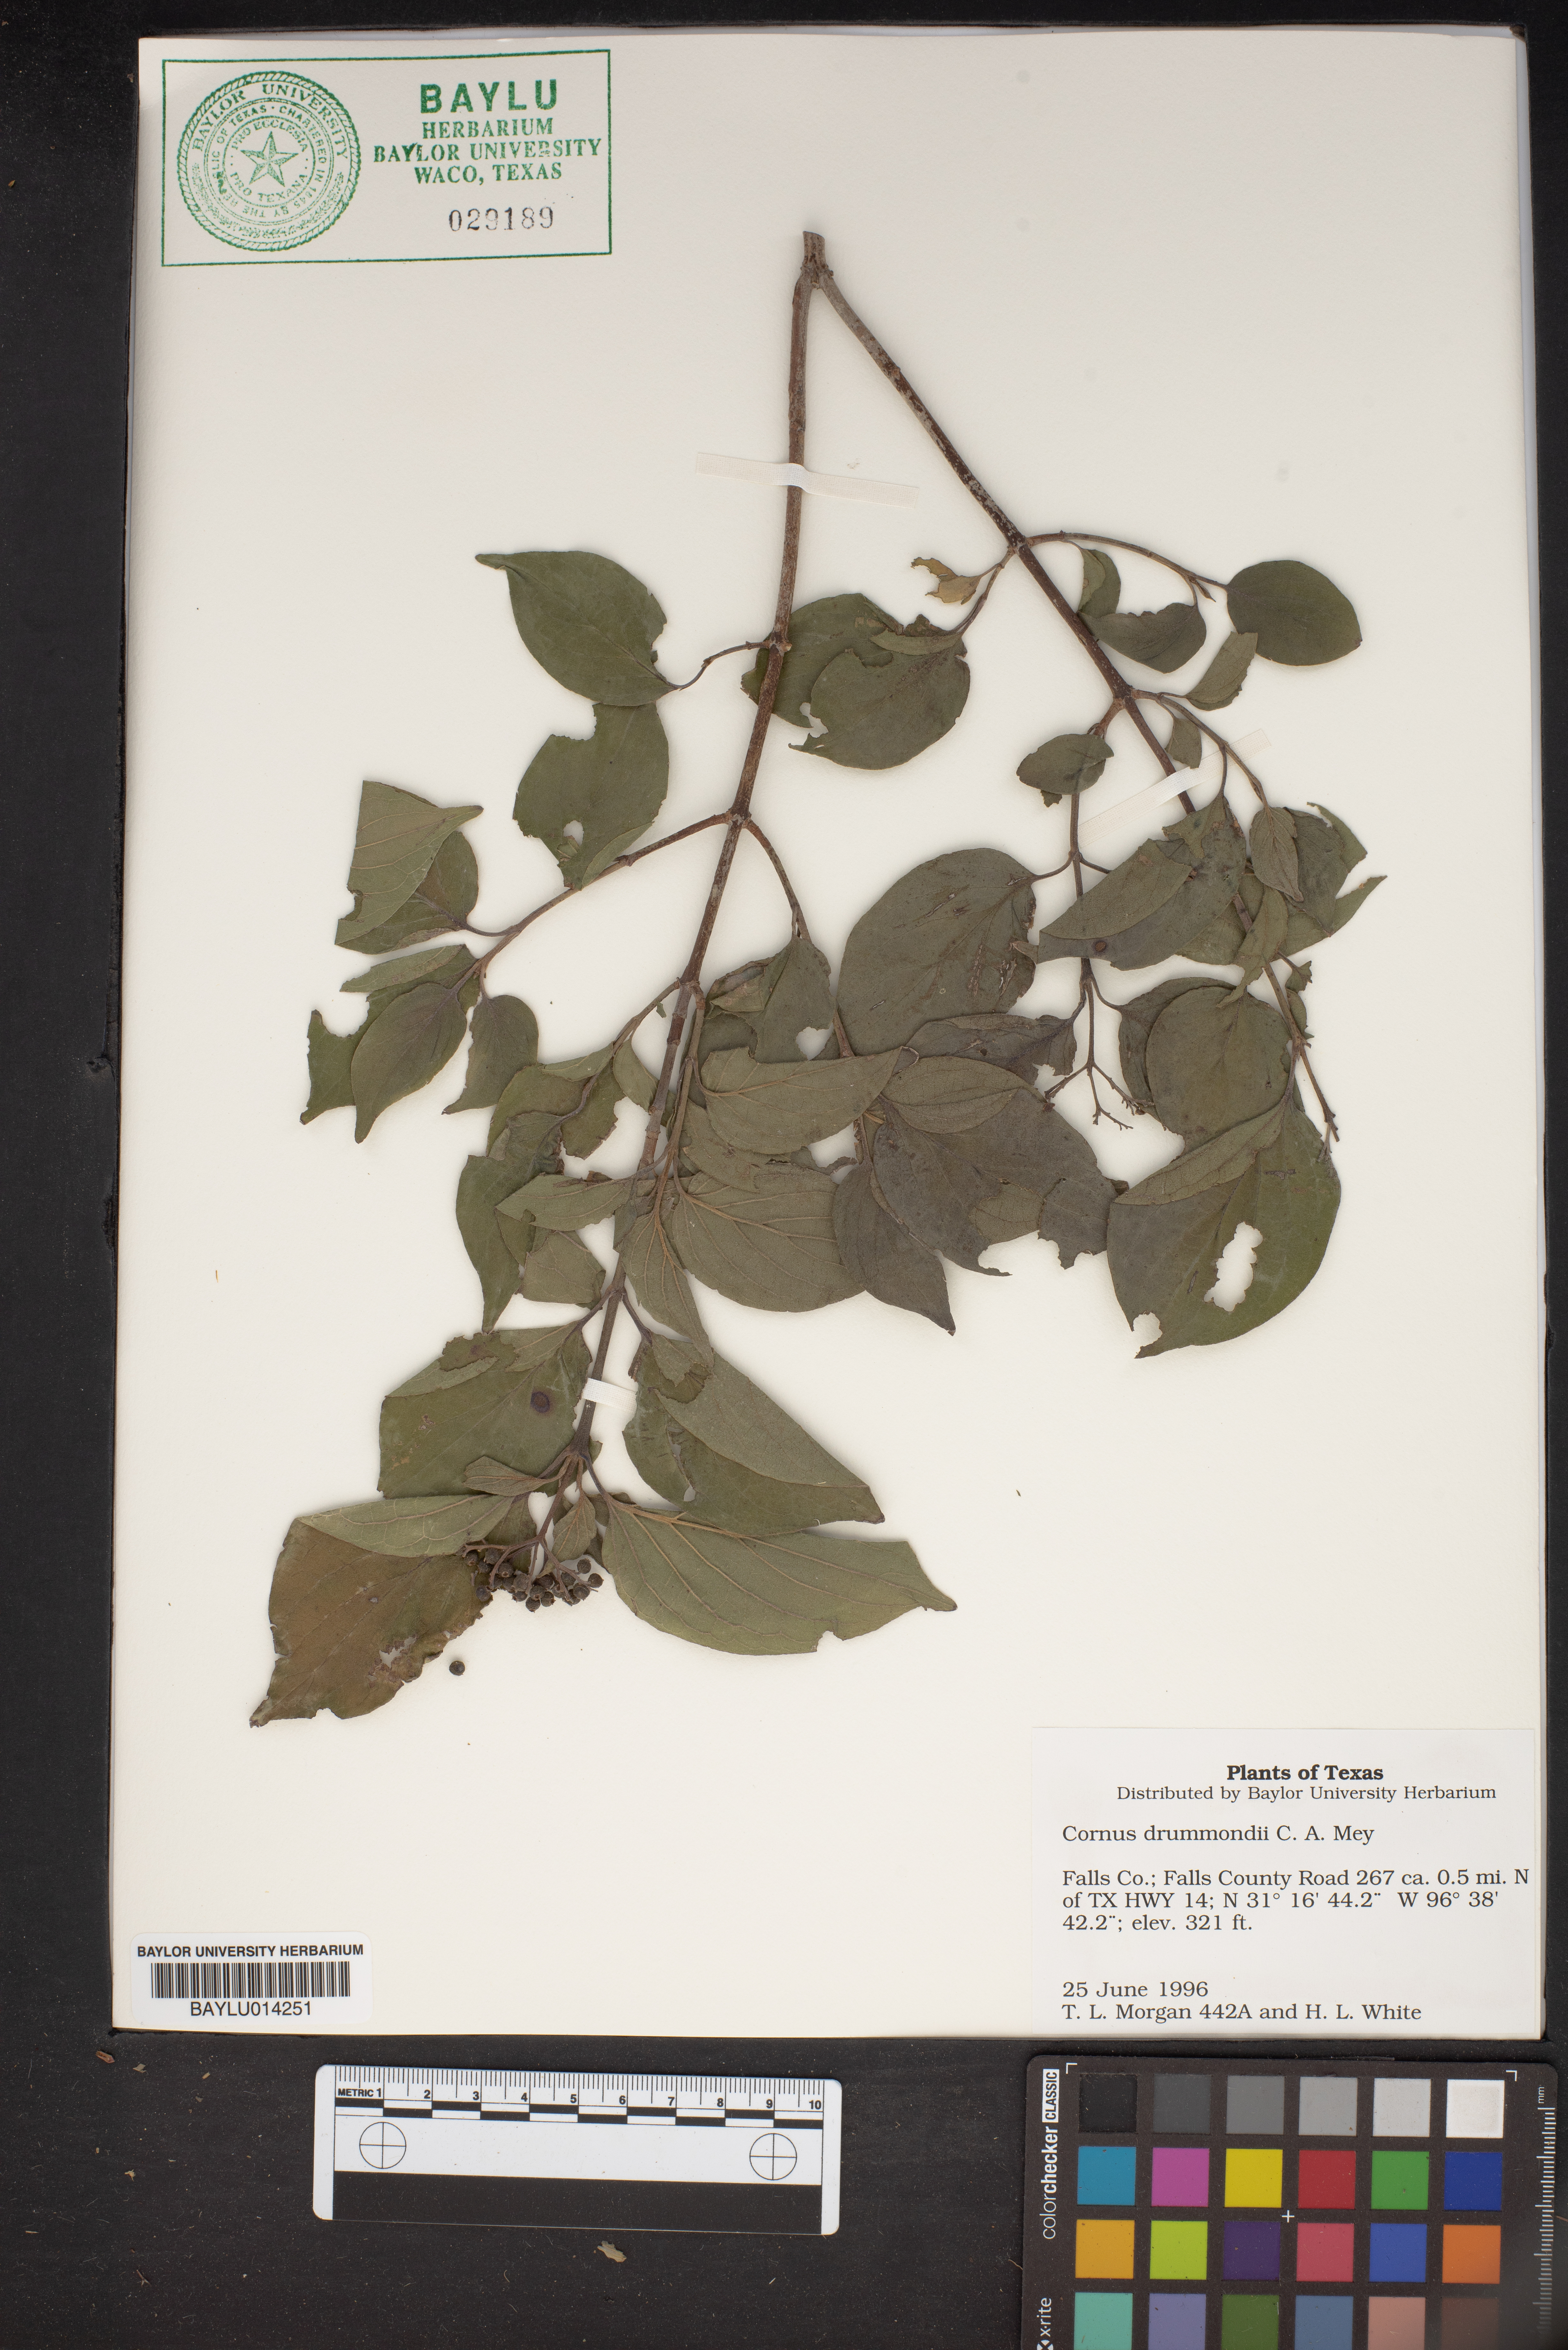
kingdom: Plantae
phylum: Tracheophyta
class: Magnoliopsida
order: Cornales
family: Cornaceae
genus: Cornus
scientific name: Cornus drummondii
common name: Rough-leaf dogwood
